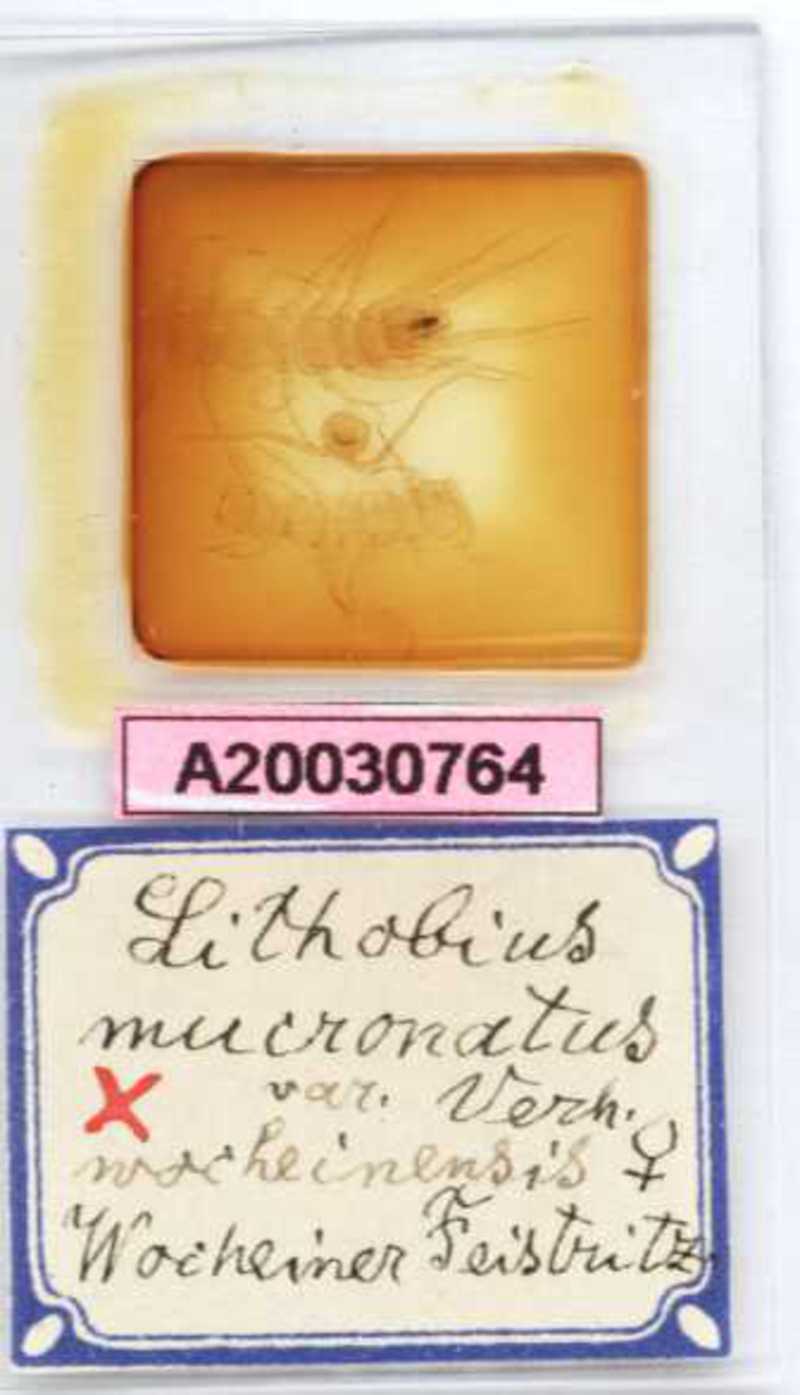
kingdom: Animalia
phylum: Arthropoda
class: Chilopoda
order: Lithobiomorpha
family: Lithobiidae
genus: Lithobius
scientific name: Lithobius mucronatus
